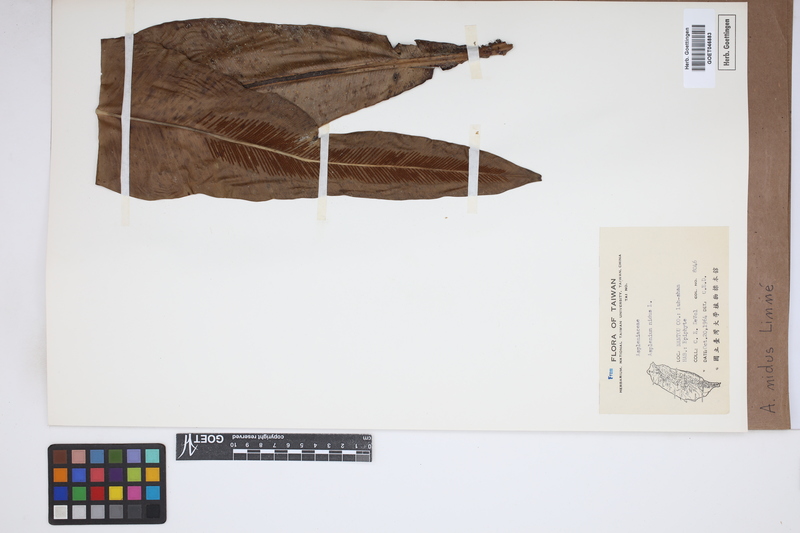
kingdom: Plantae
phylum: Tracheophyta
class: Polypodiopsida
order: Polypodiales
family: Aspleniaceae
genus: Asplenium
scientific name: Asplenium nidus
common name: Bird's-nest fern
